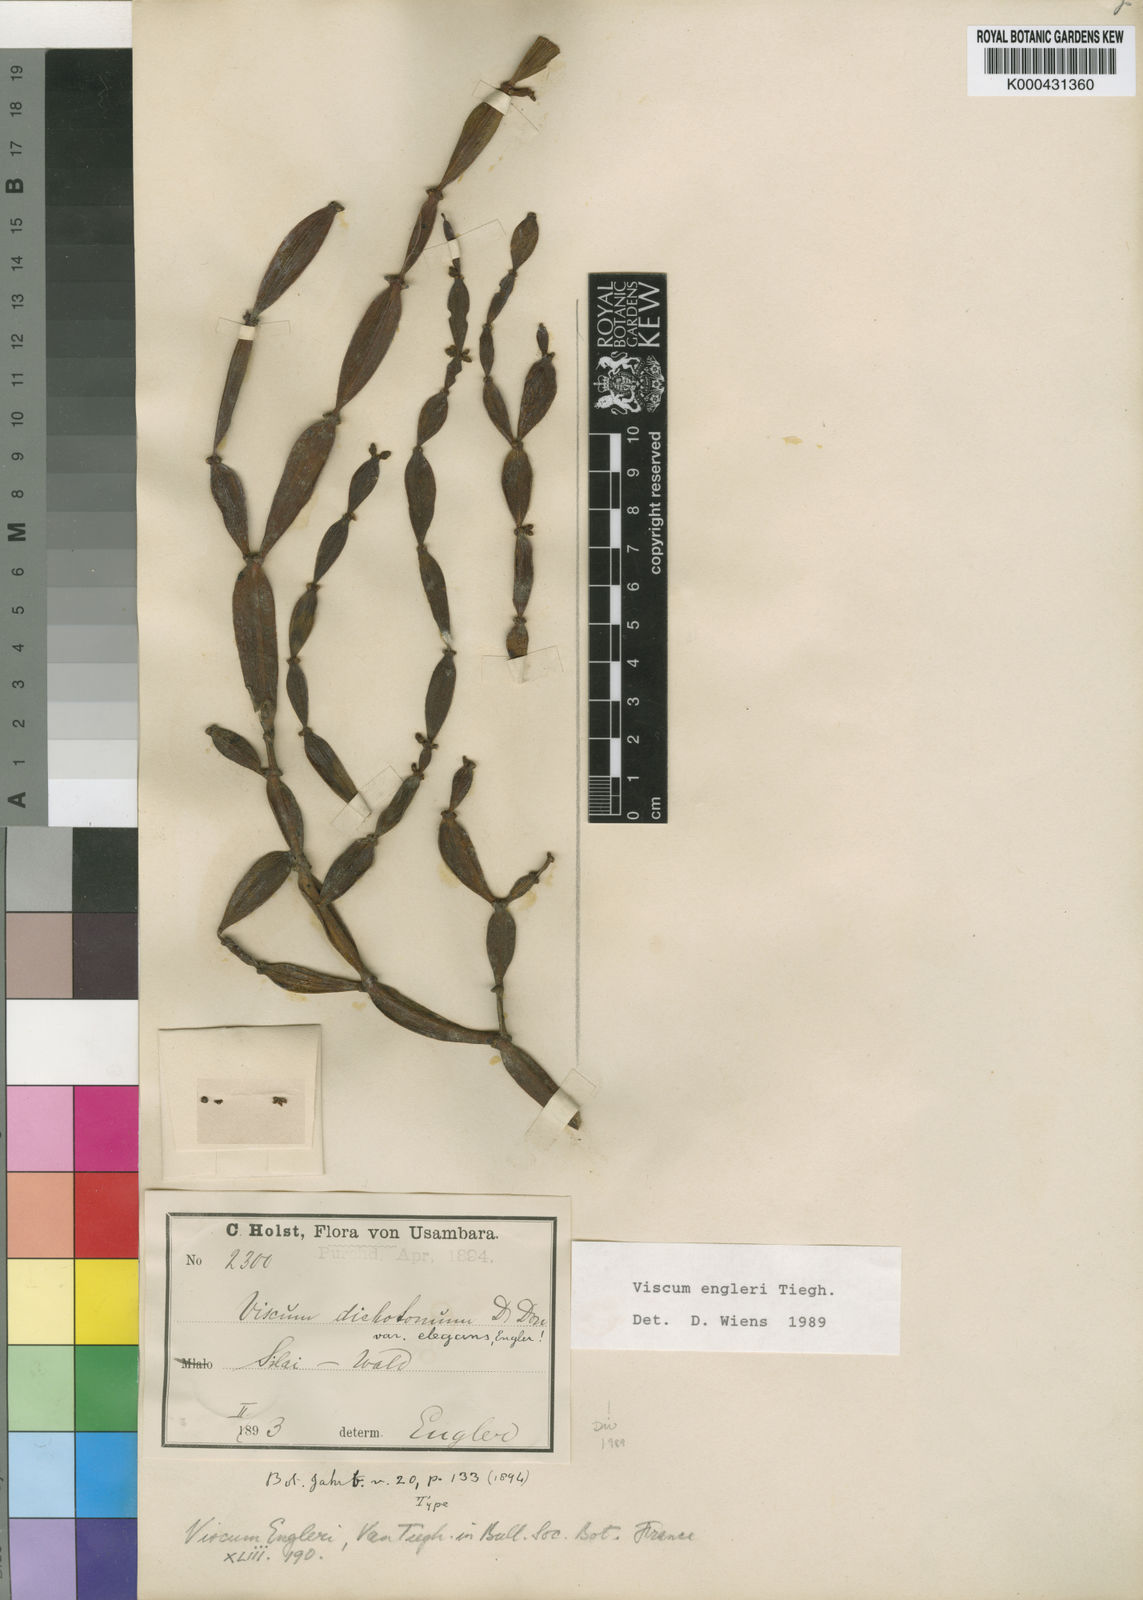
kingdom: Plantae
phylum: Tracheophyta
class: Magnoliopsida
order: Santalales
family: Viscaceae
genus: Viscum
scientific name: Viscum engleri
